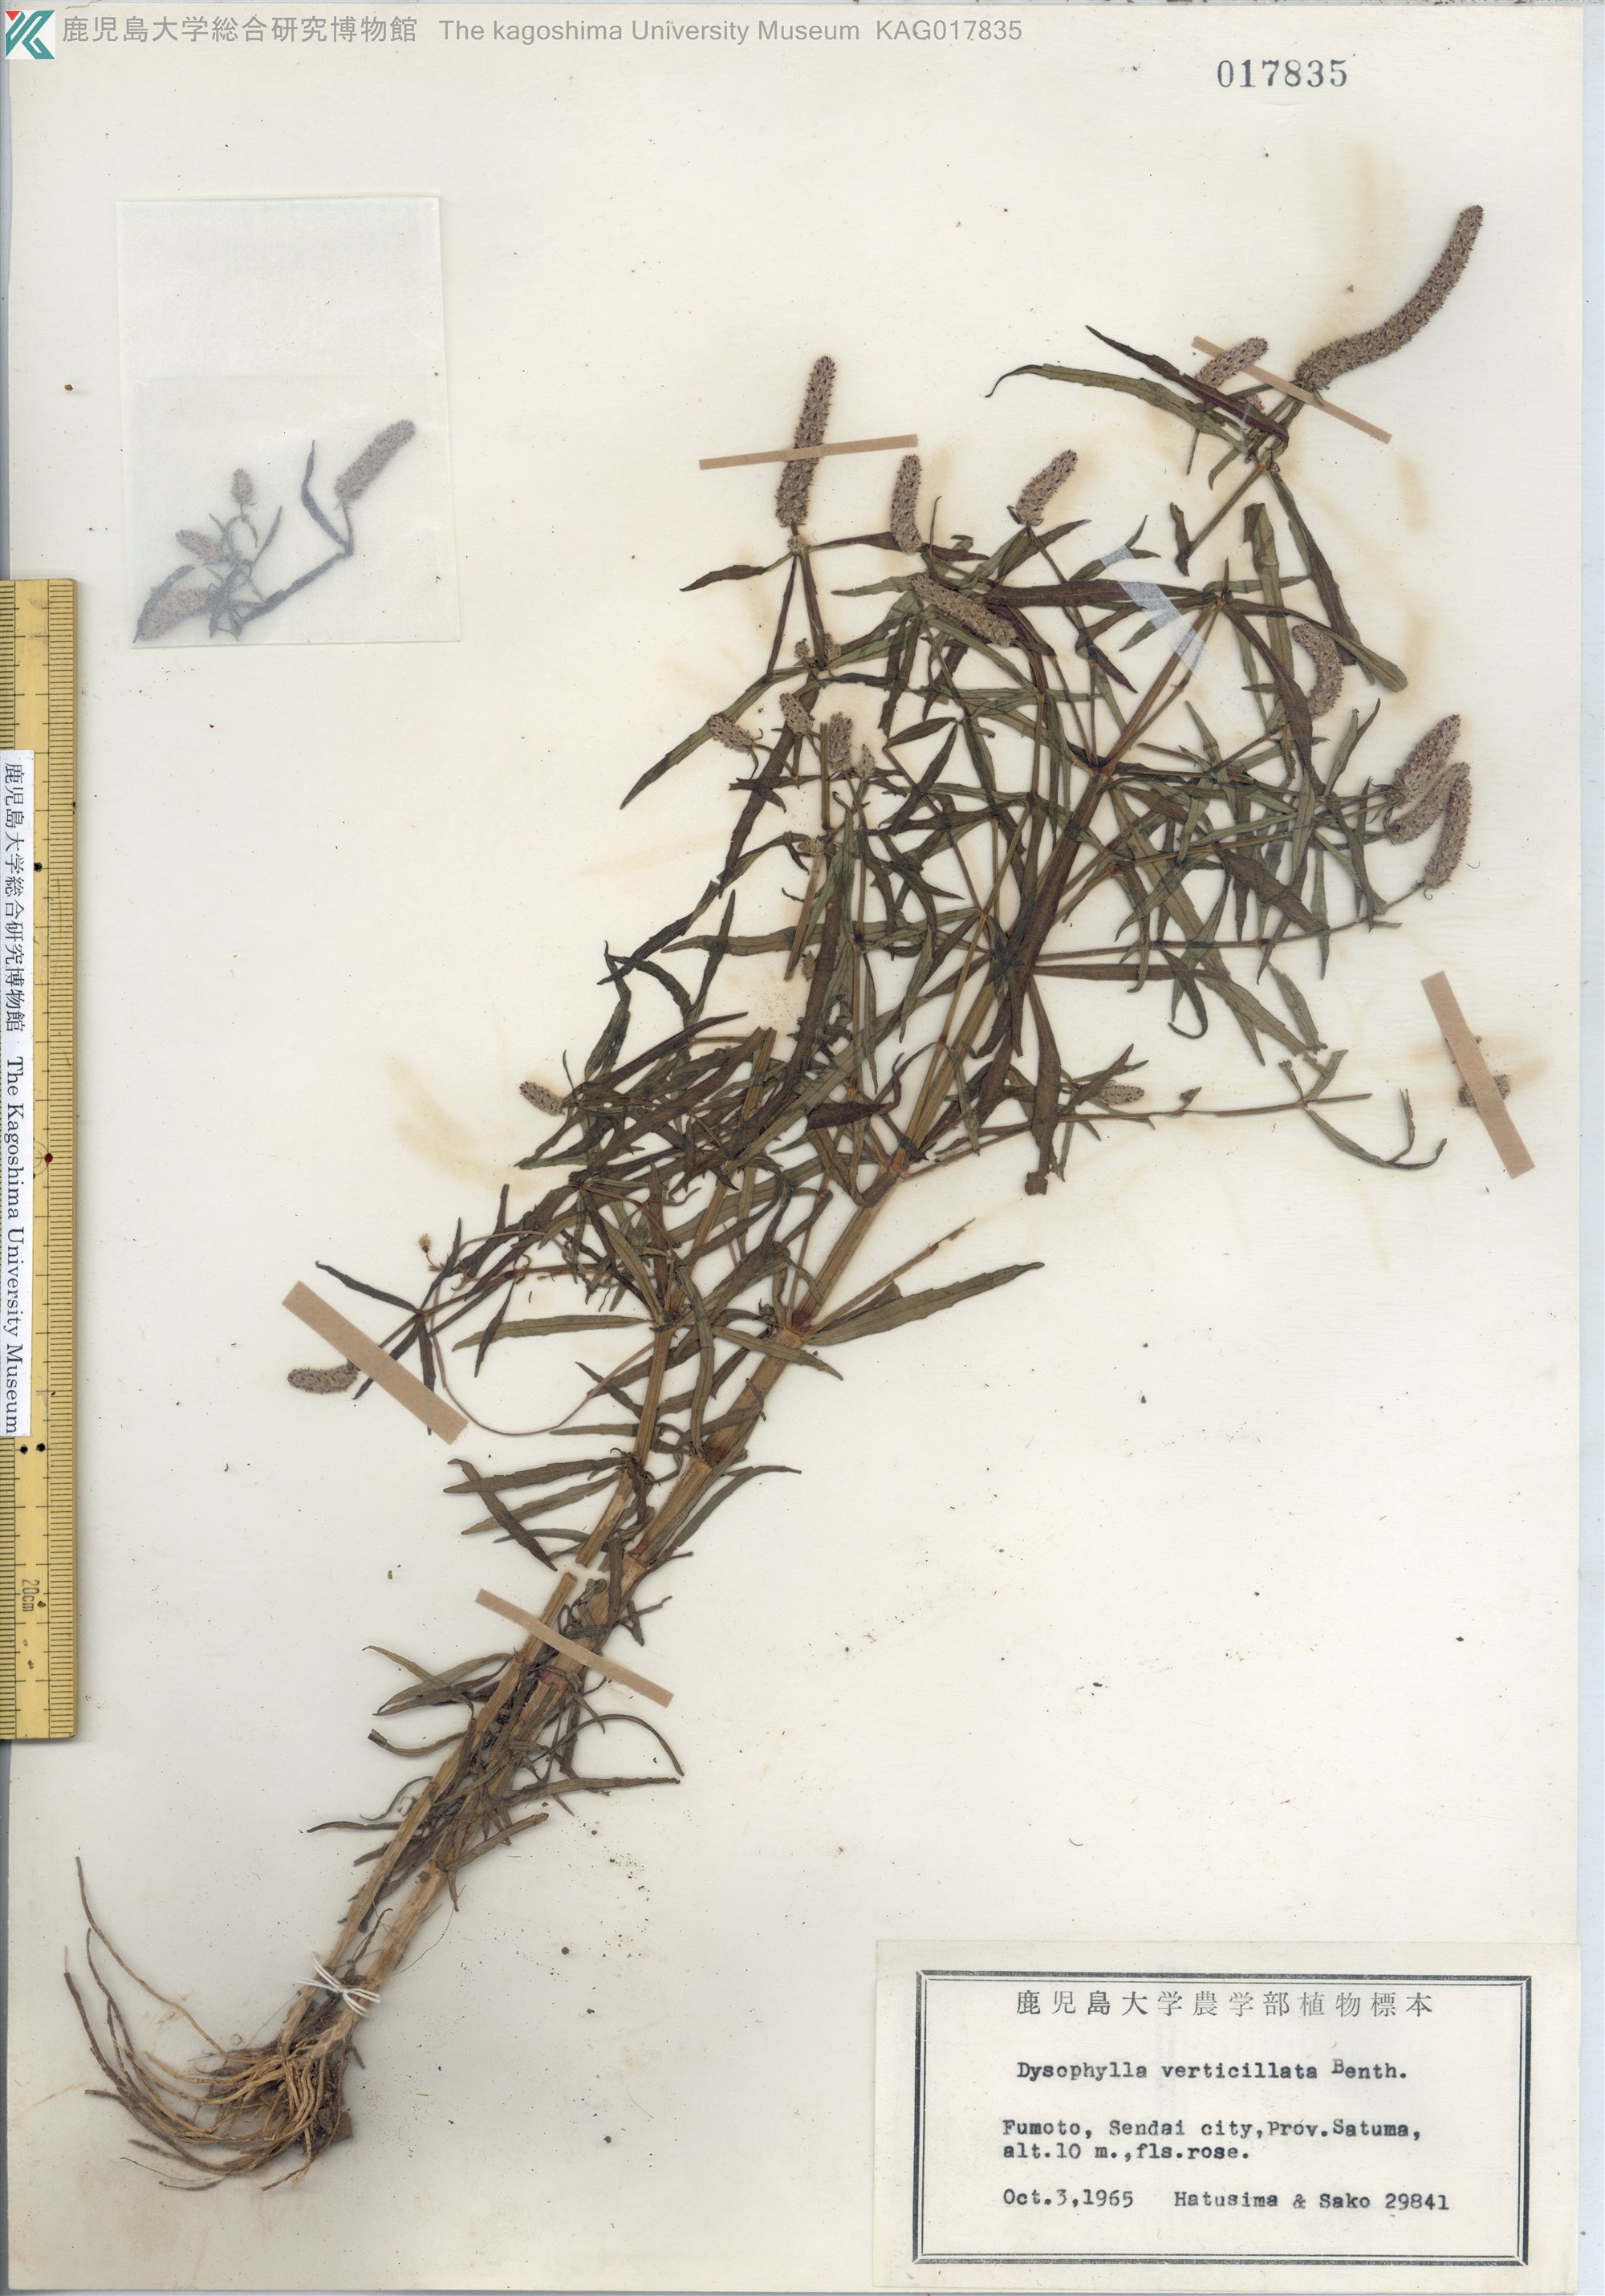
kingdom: Plantae
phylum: Tracheophyta
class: Magnoliopsida
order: Lamiales
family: Lamiaceae
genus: Pogostemon
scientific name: Pogostemon stellatus
